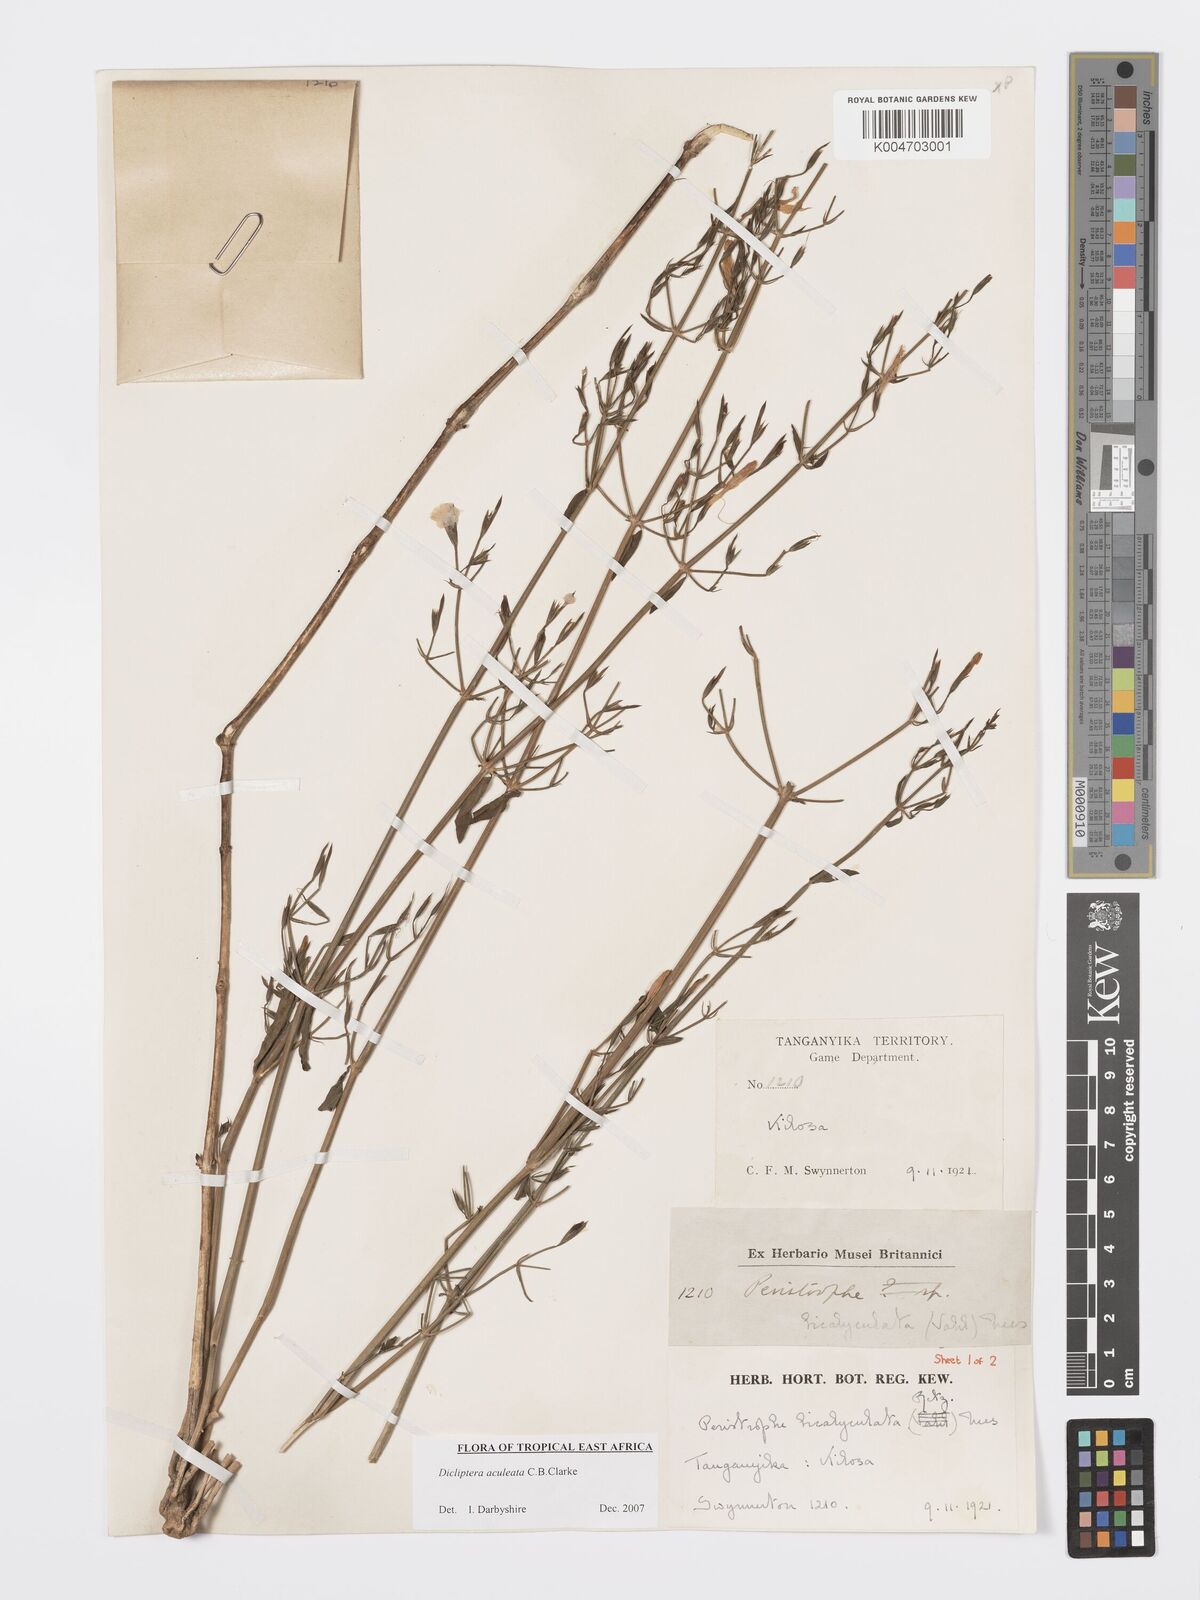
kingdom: Plantae
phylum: Tracheophyta
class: Magnoliopsida
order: Lamiales
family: Acanthaceae
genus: Dicliptera
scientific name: Dicliptera hensii
